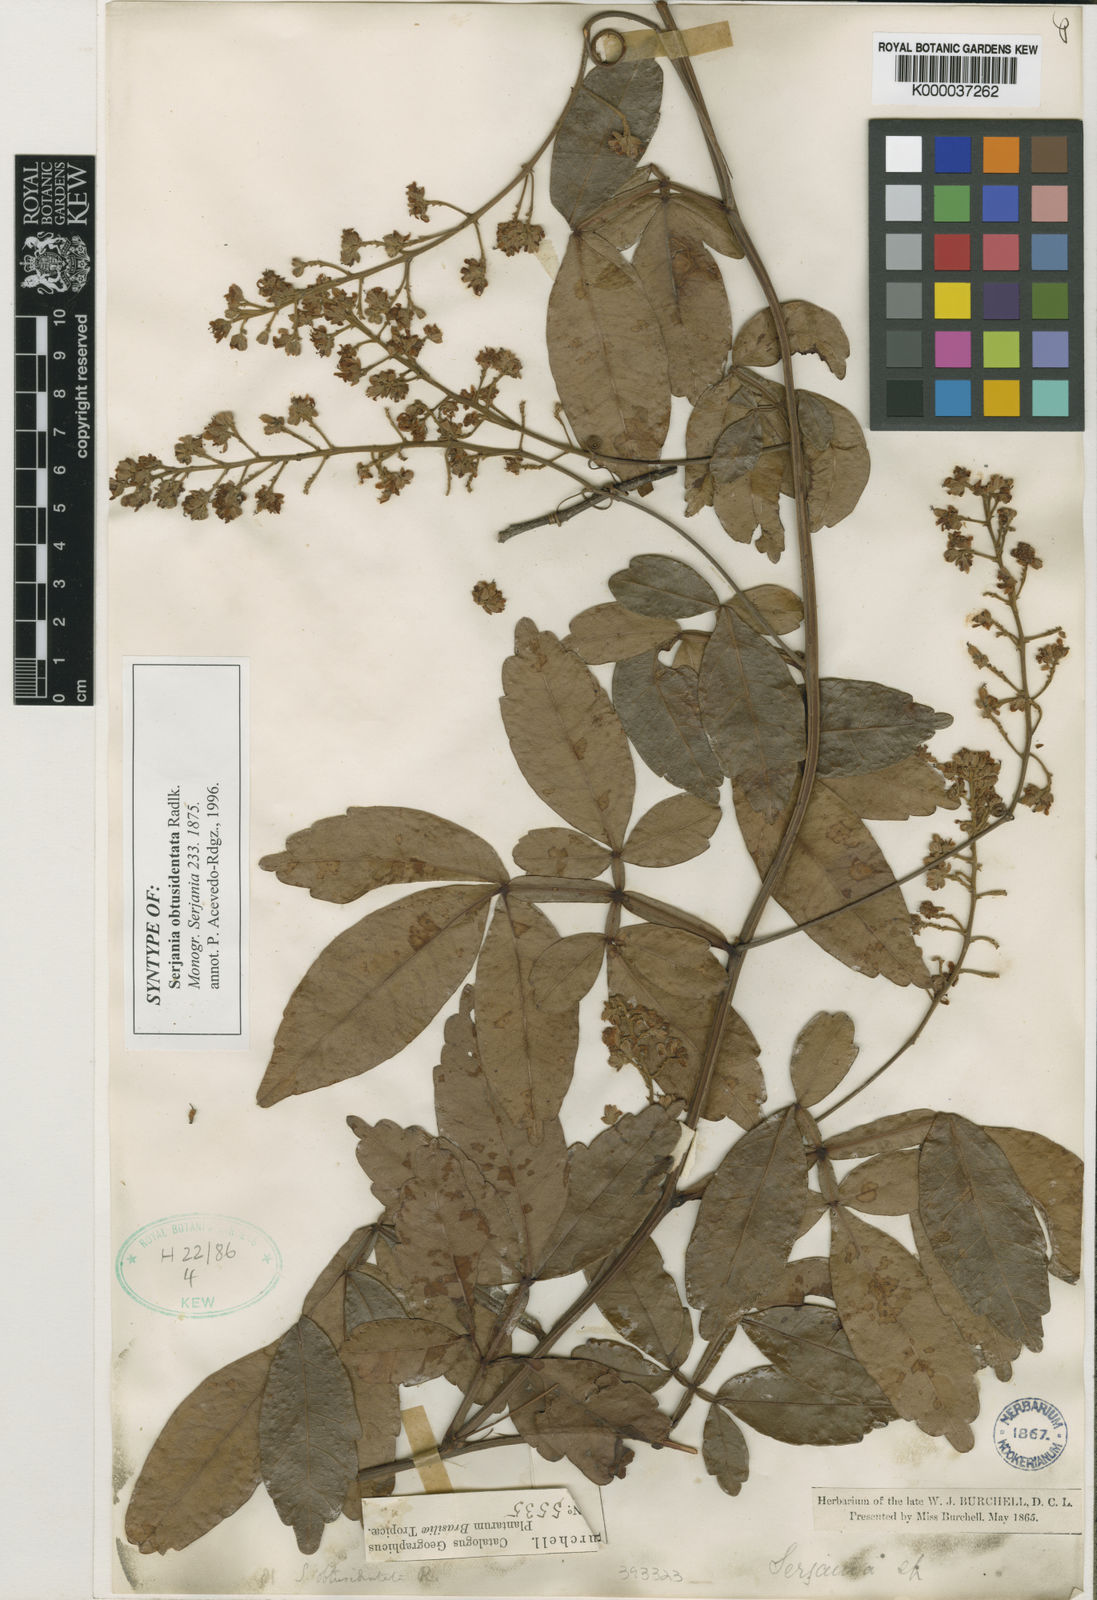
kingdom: Plantae
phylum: Tracheophyta
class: Magnoliopsida
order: Sapindales
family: Sapindaceae
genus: Serjania
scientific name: Serjania obtusidentata
